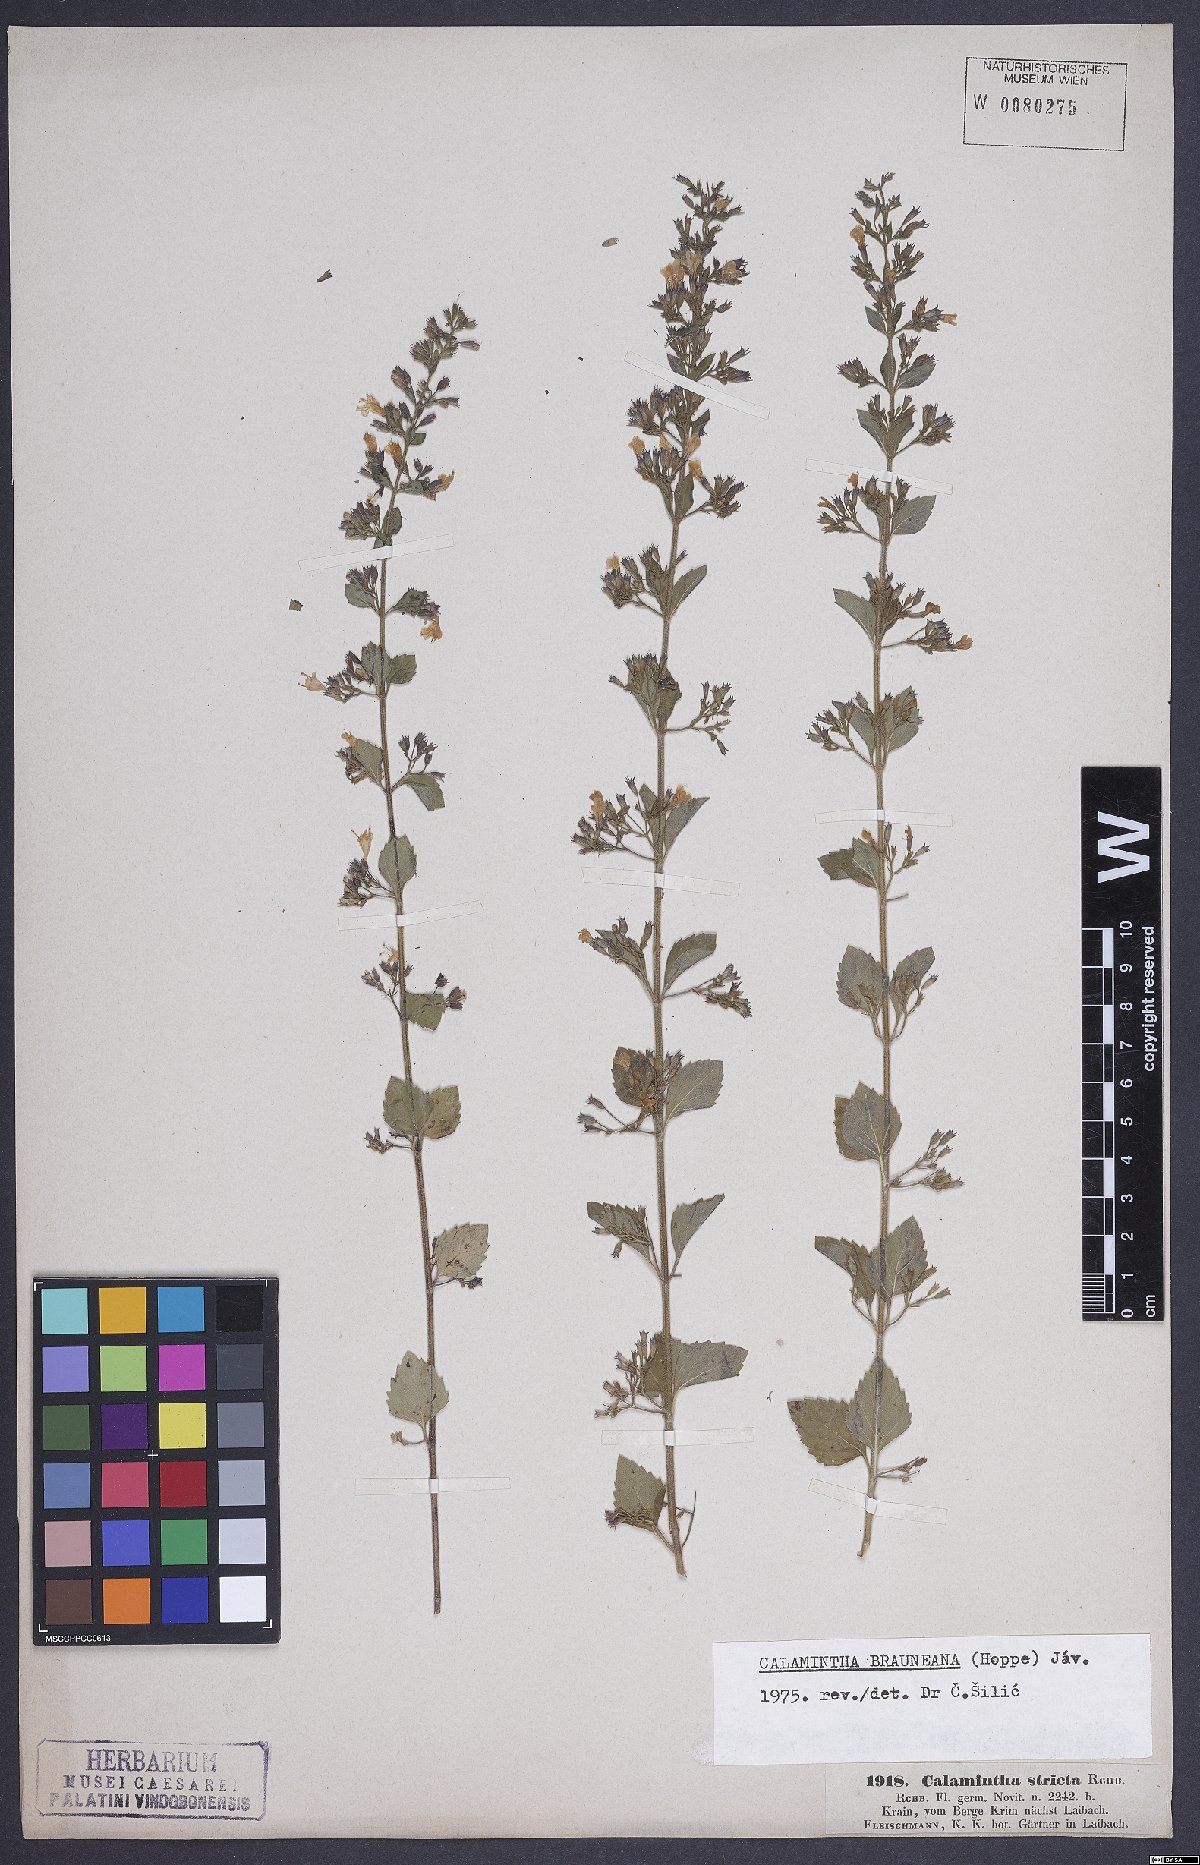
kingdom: Plantae
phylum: Tracheophyta
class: Magnoliopsida
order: Lamiales
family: Lamiaceae
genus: Clinopodium
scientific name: Clinopodium nepeta
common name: Lesser calamint
